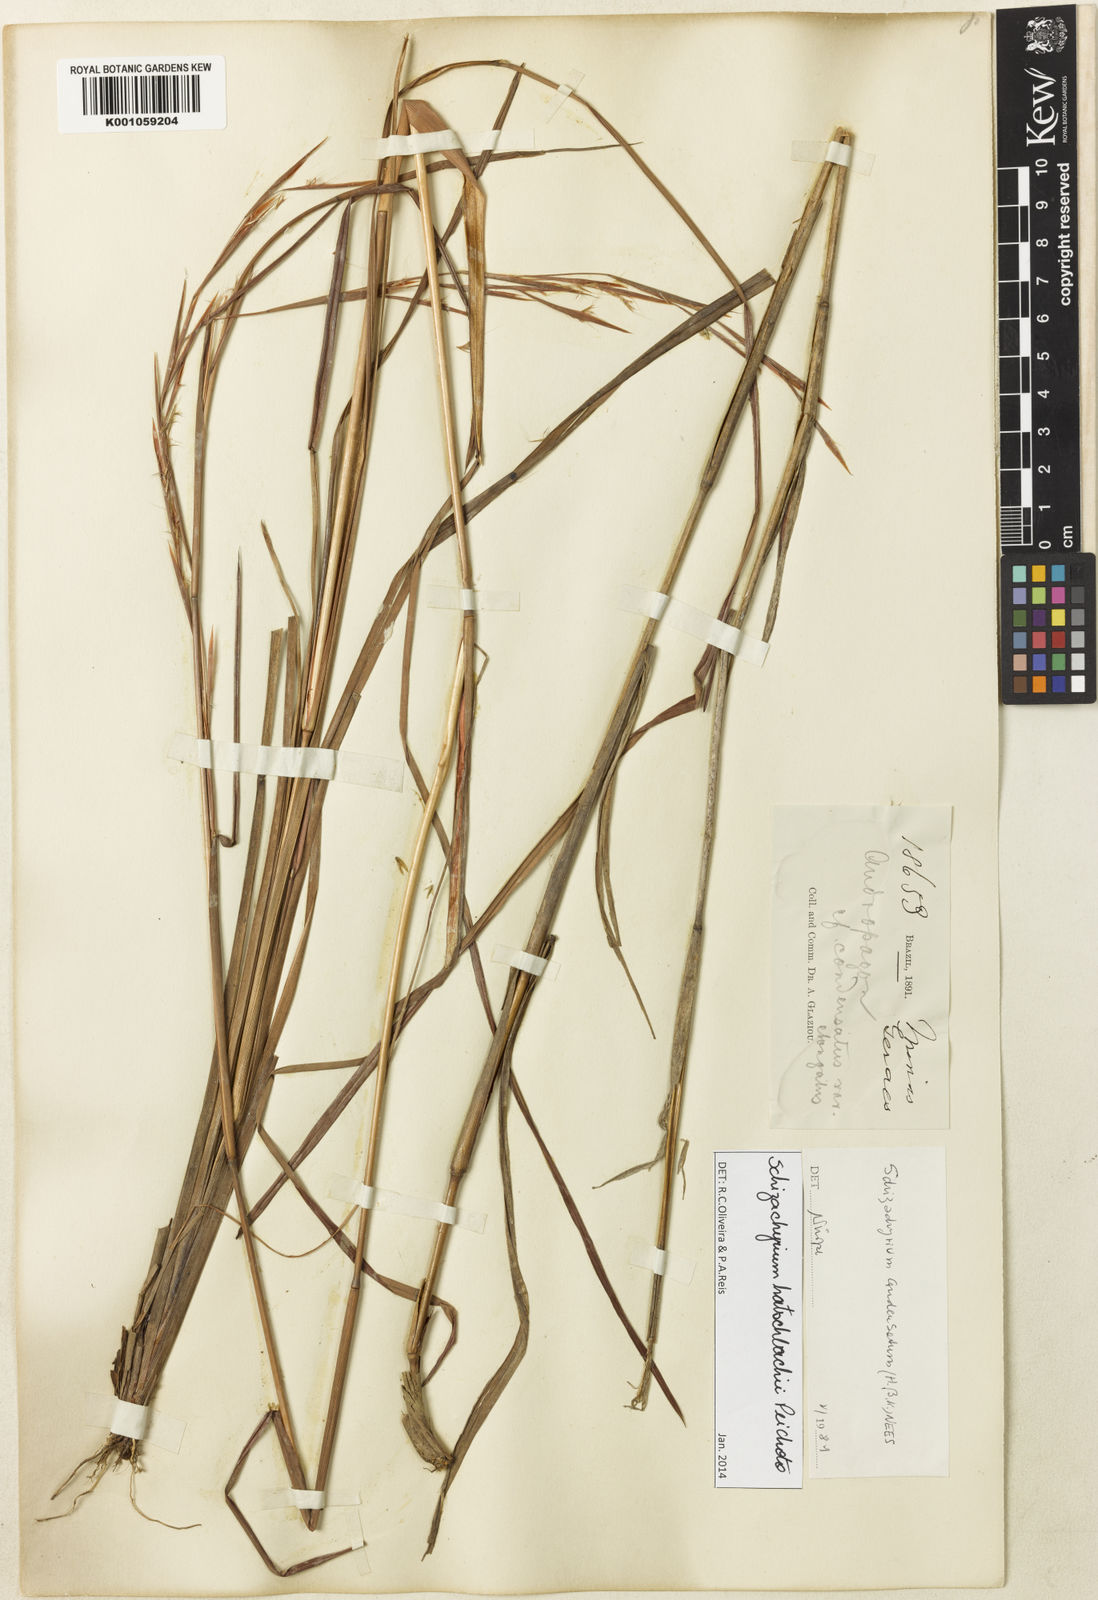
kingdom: Plantae
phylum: Tracheophyta
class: Liliopsida
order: Poales
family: Poaceae
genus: Schizachyrium
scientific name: Schizachyrium hatschbachii
